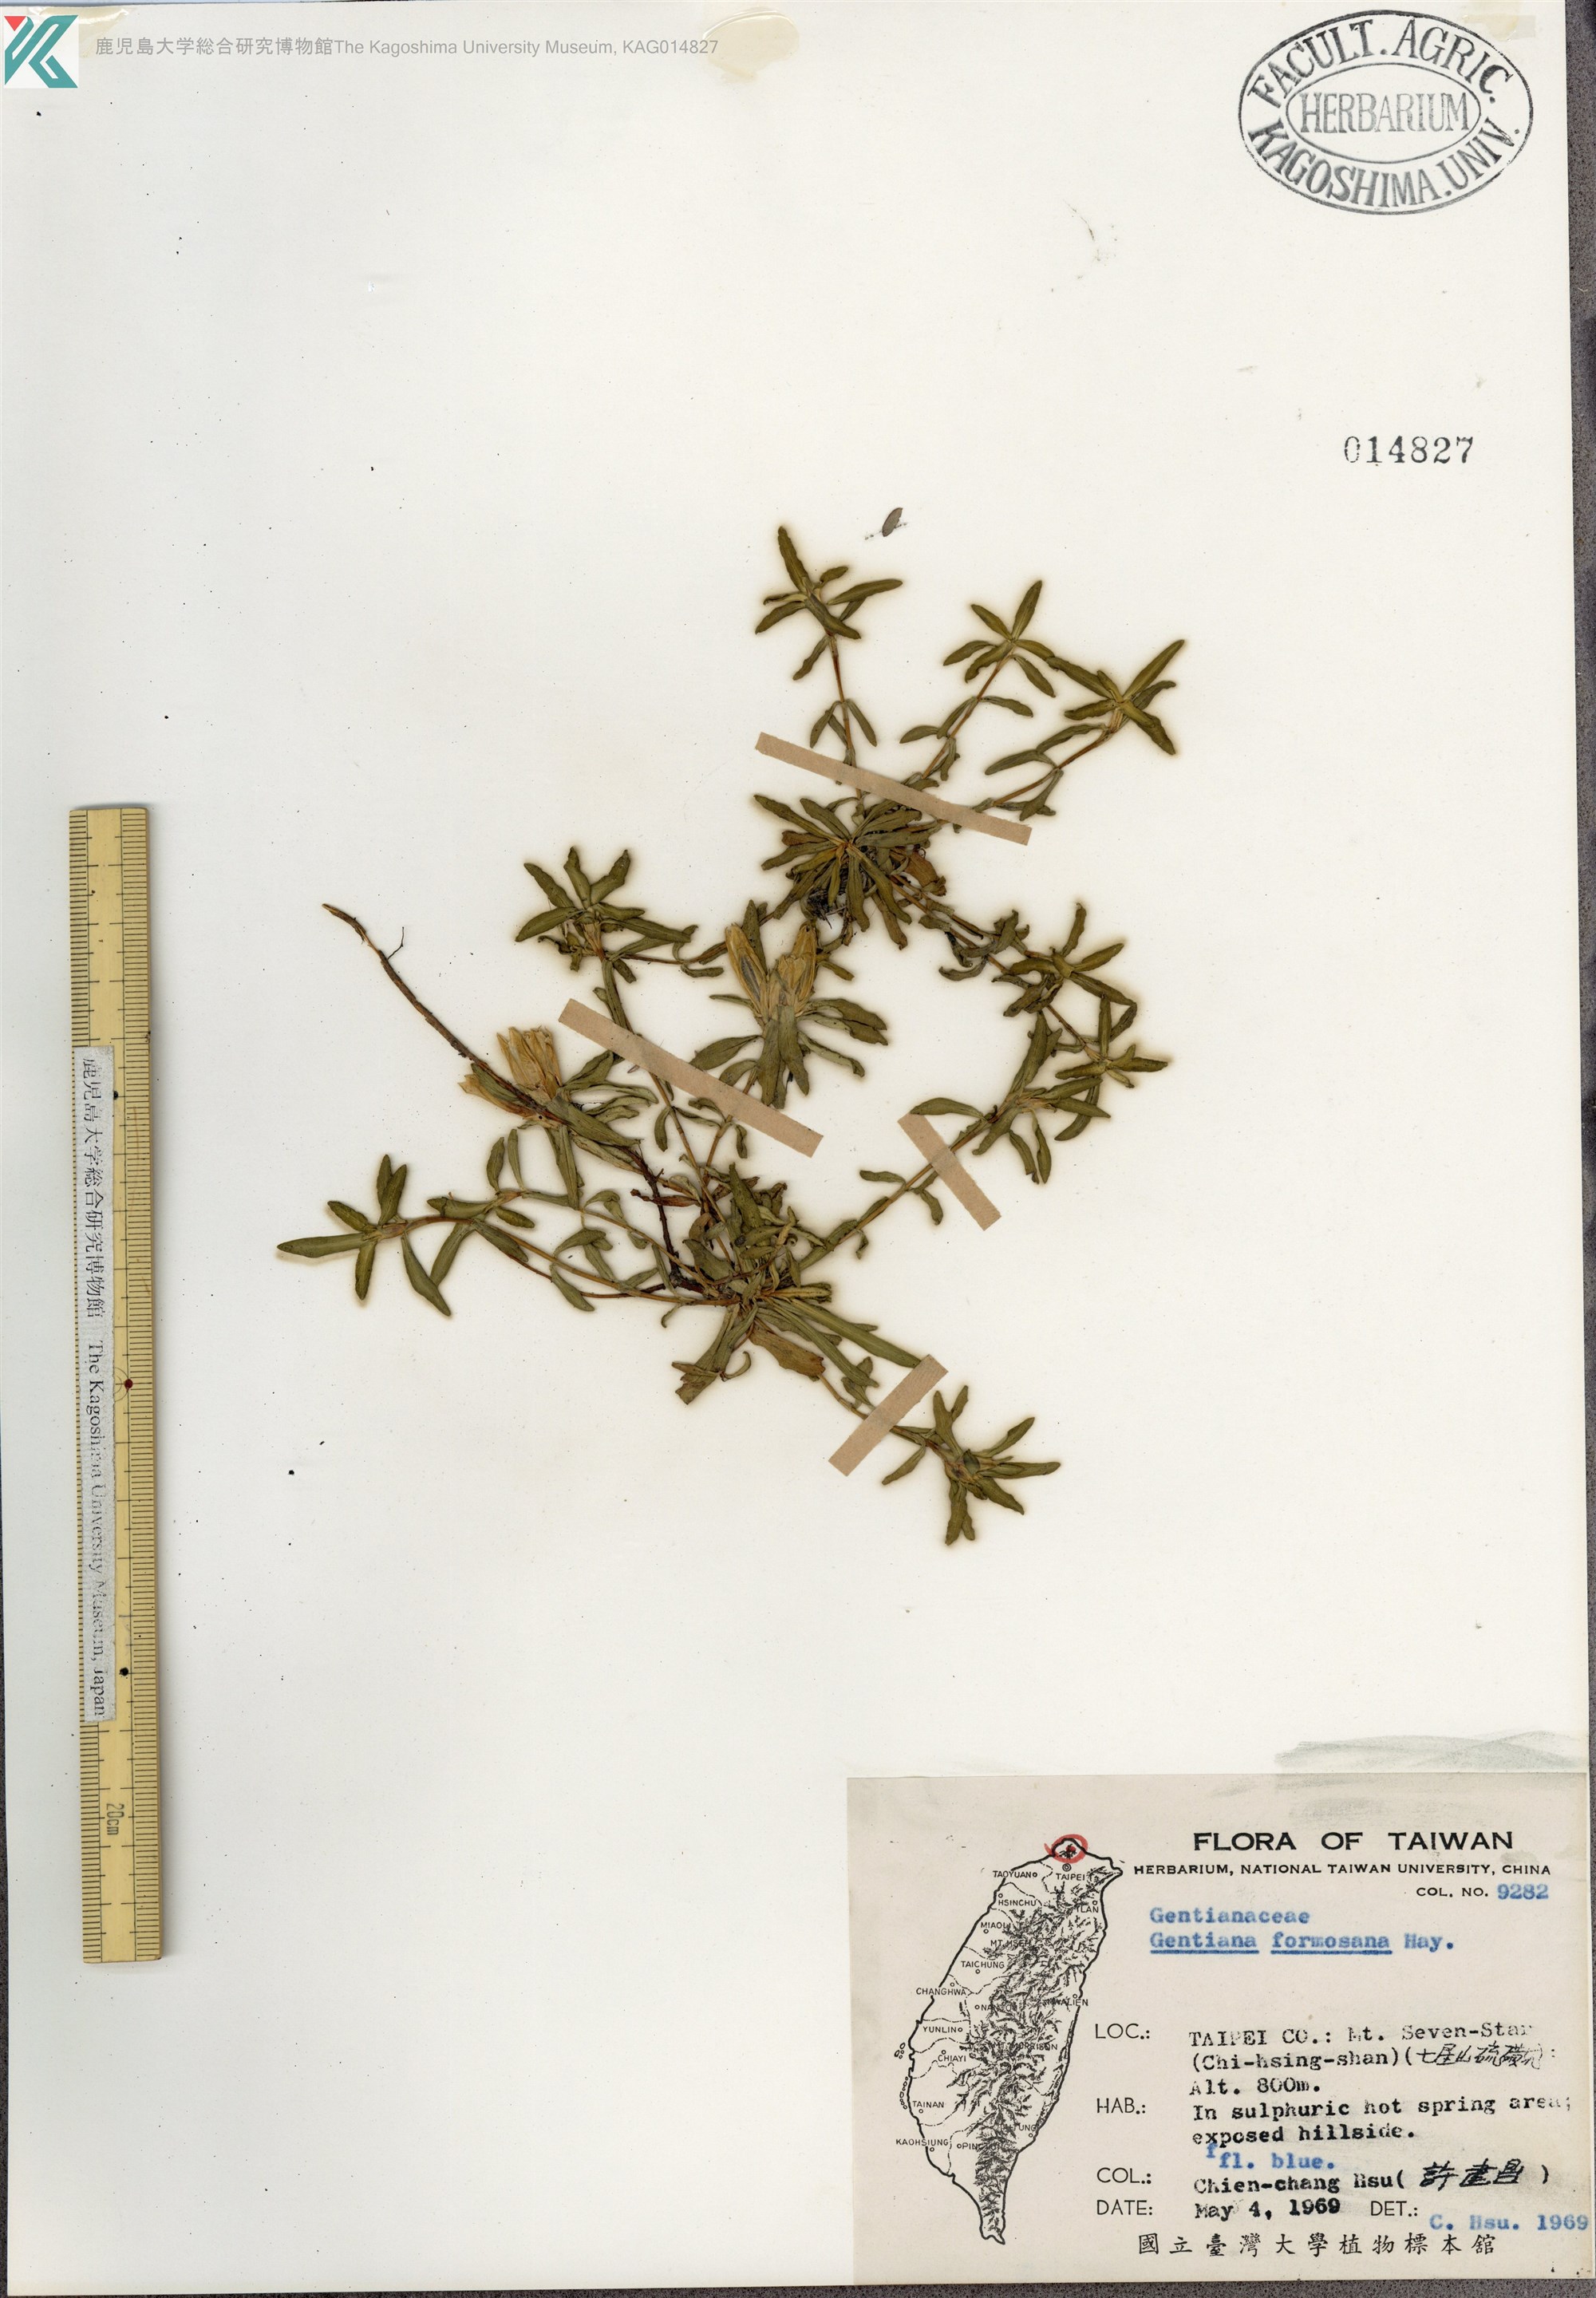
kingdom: Plantae
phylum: Tracheophyta
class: Magnoliopsida
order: Gentianales
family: Gentianaceae
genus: Gentiana
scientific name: Gentiana davidii
